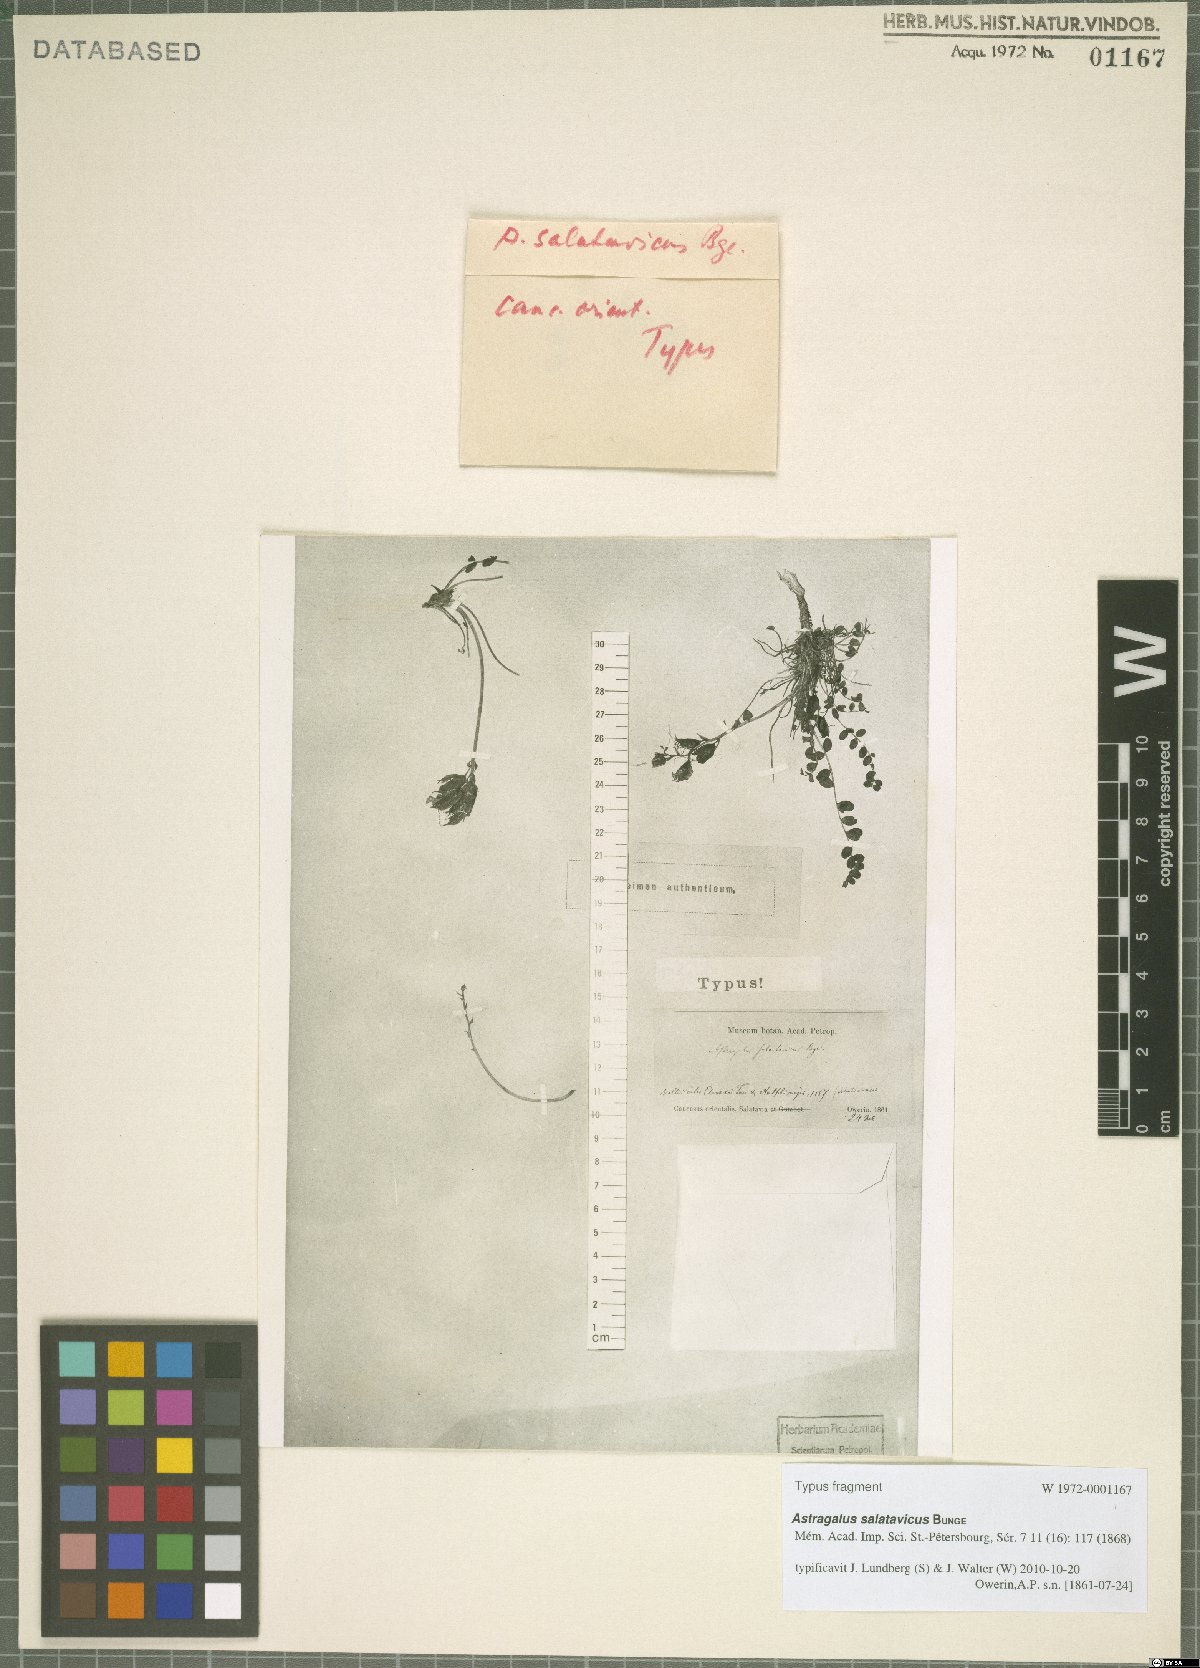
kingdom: Plantae
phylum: Tracheophyta
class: Magnoliopsida
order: Fabales
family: Fabaceae
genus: Astragalus
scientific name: Astragalus salatavicus
